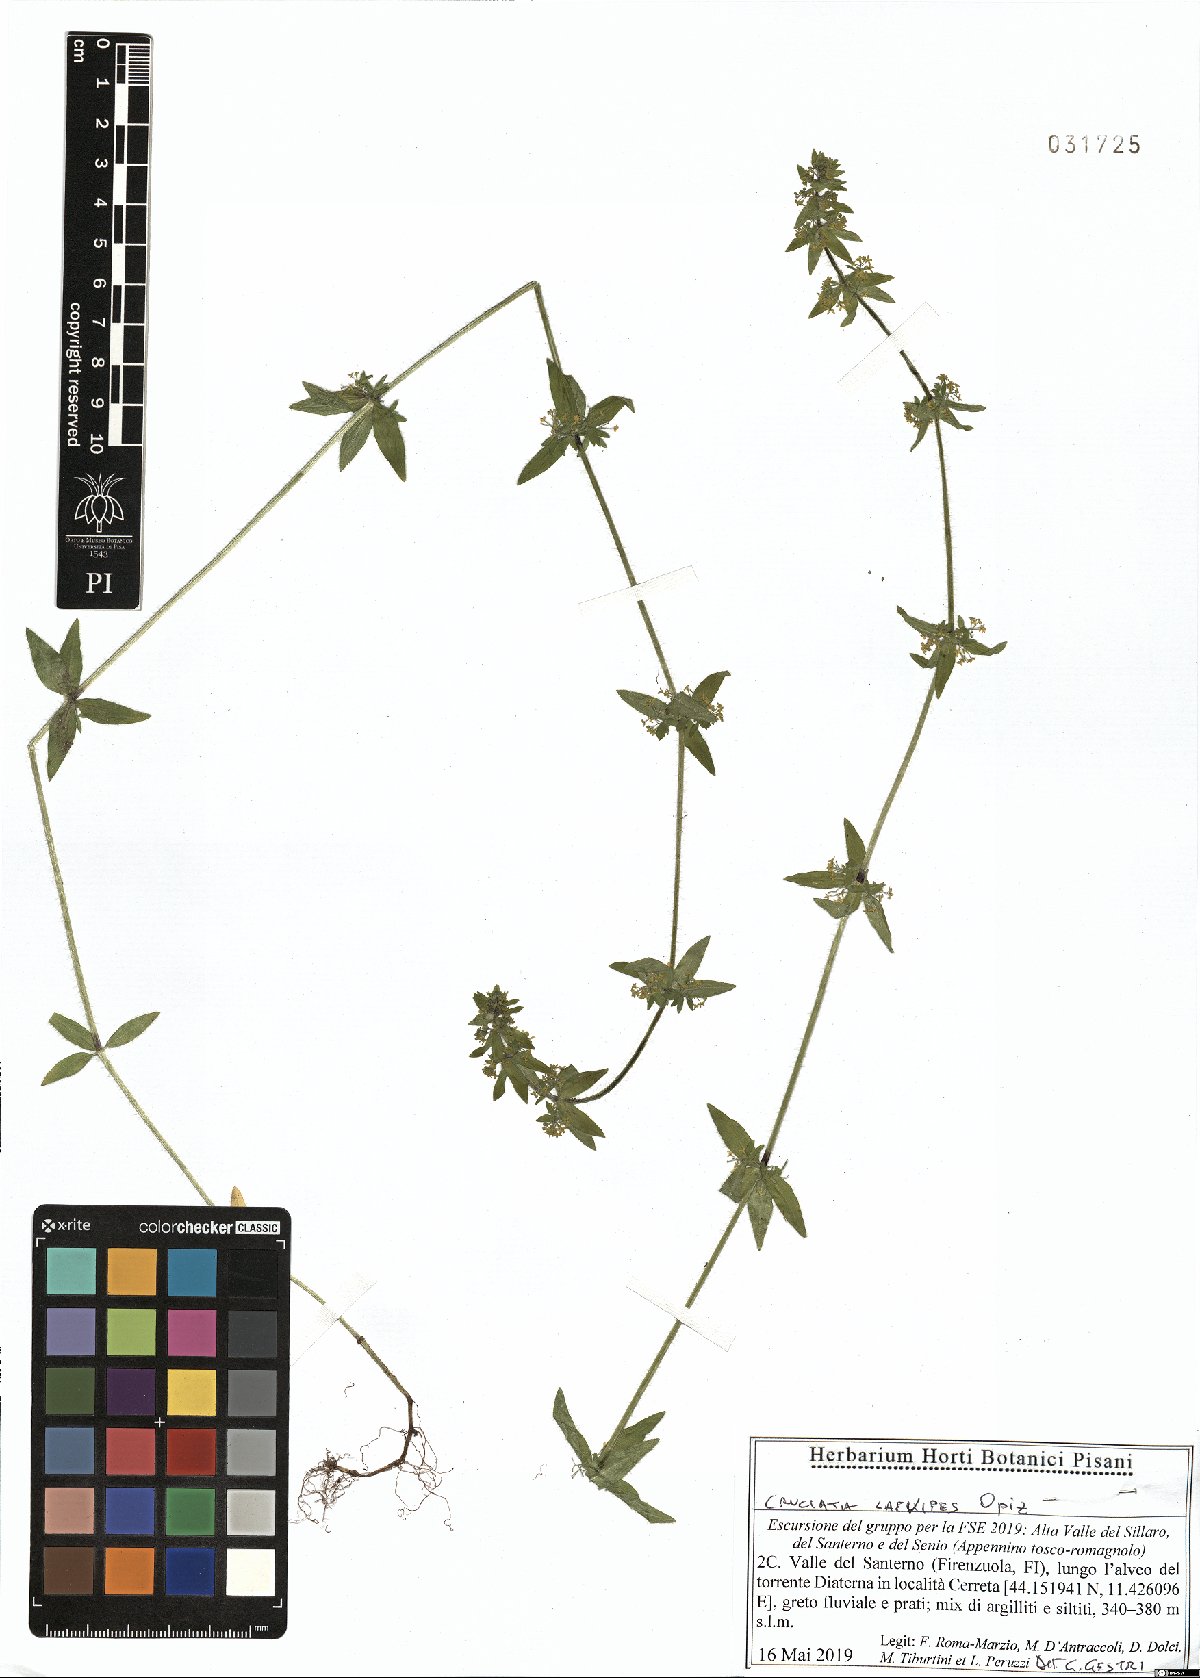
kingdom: Plantae
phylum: Tracheophyta
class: Magnoliopsida
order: Gentianales
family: Rubiaceae
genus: Cruciata
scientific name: Cruciata laevipes
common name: Crosswort
